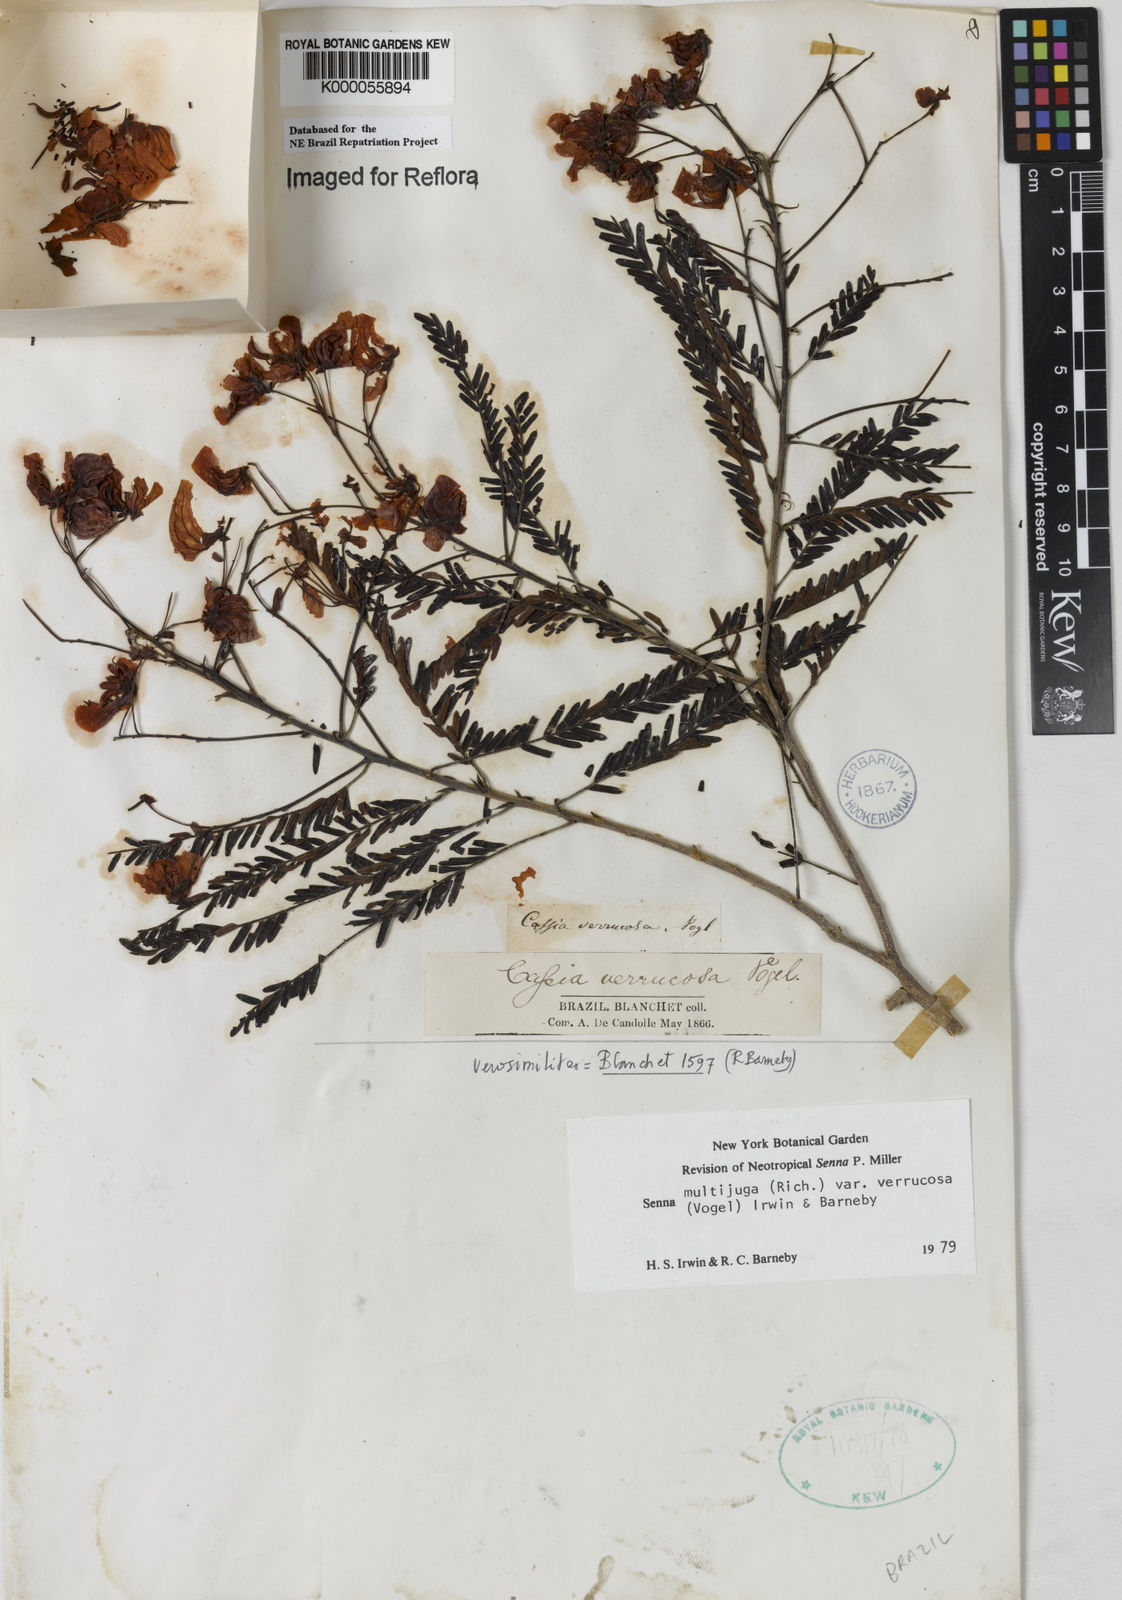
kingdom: Plantae
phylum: Tracheophyta
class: Magnoliopsida
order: Fabales
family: Fabaceae
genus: Senna
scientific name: Senna multijuga
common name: False sicklepod
